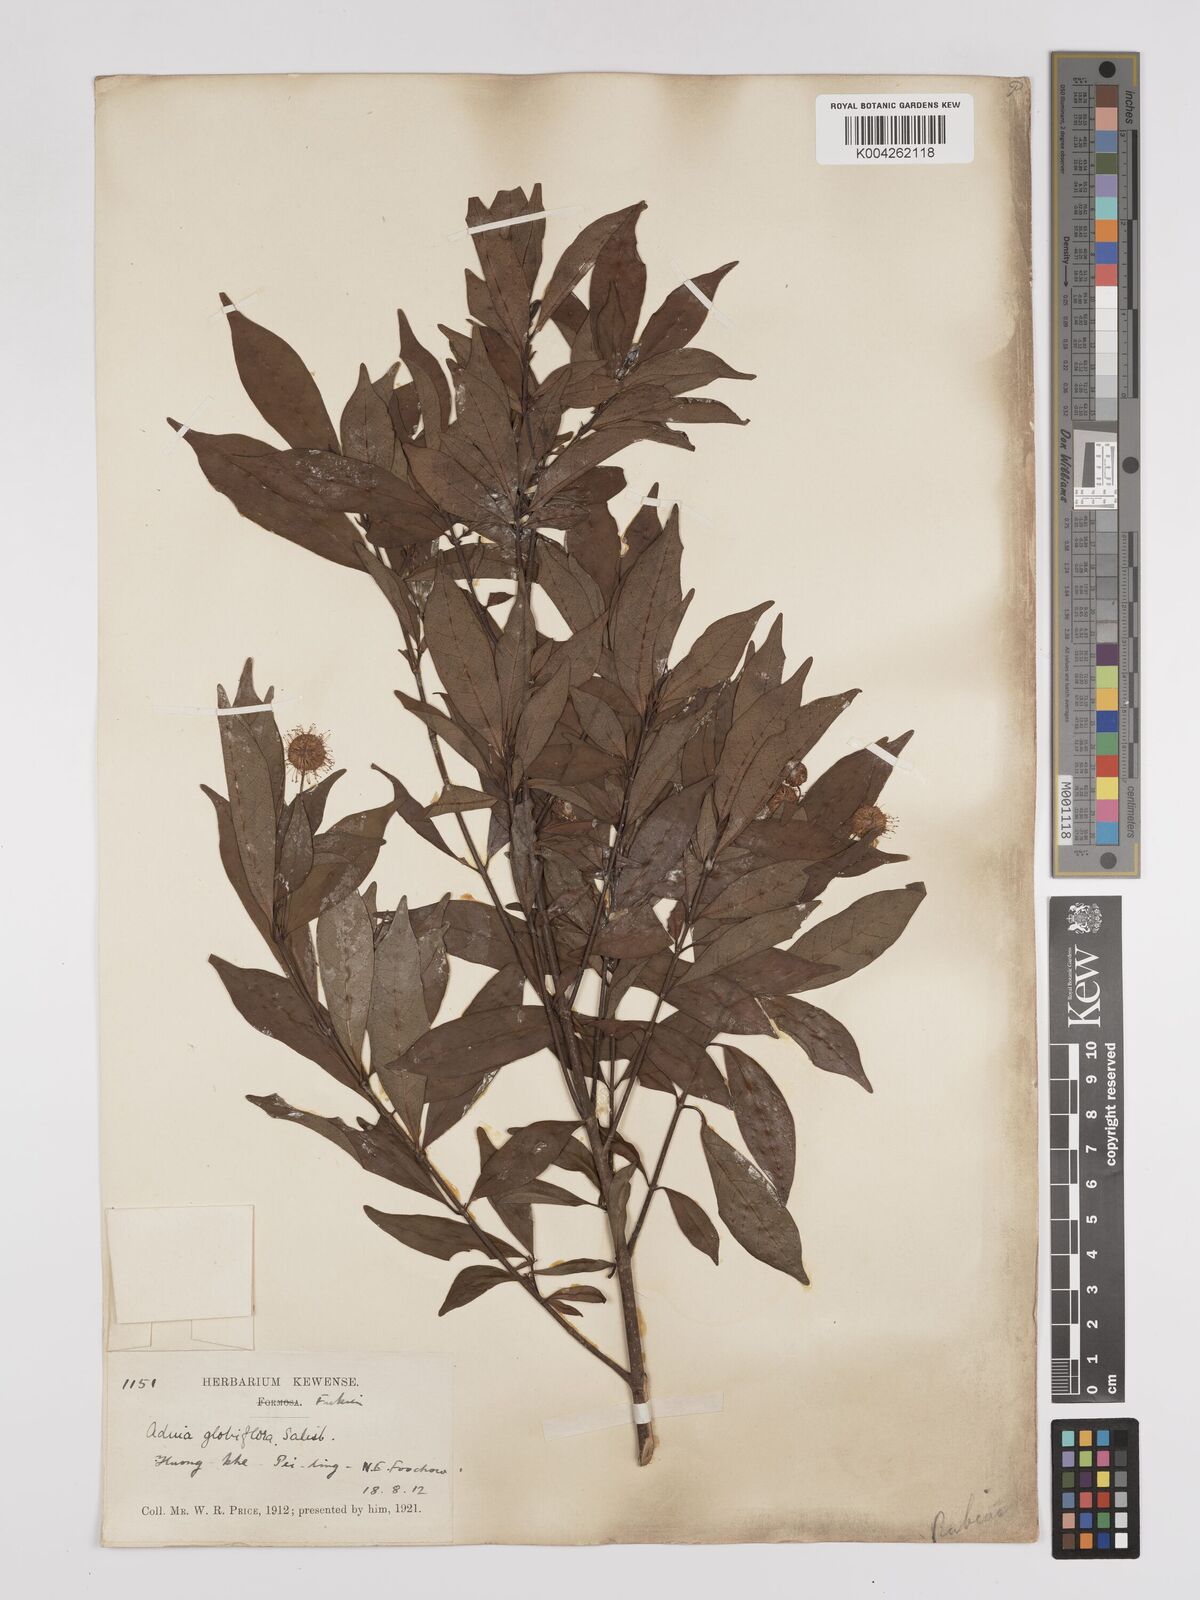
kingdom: Plantae
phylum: Tracheophyta
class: Magnoliopsida
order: Gentianales
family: Rubiaceae
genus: Adina
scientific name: Adina pilulifera
